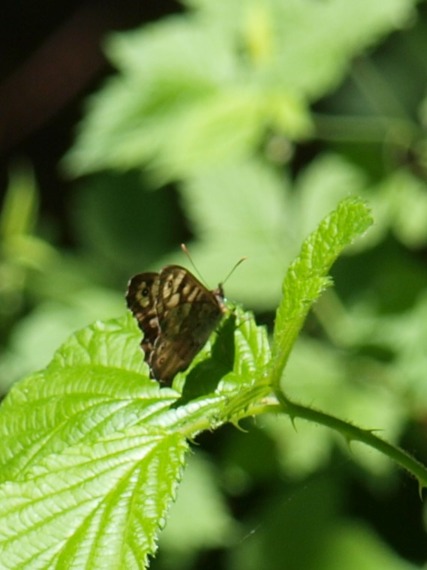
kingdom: Animalia
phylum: Arthropoda
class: Insecta
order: Lepidoptera
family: Nymphalidae
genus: Pararge
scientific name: Pararge aegeria
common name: Skovrandøje
